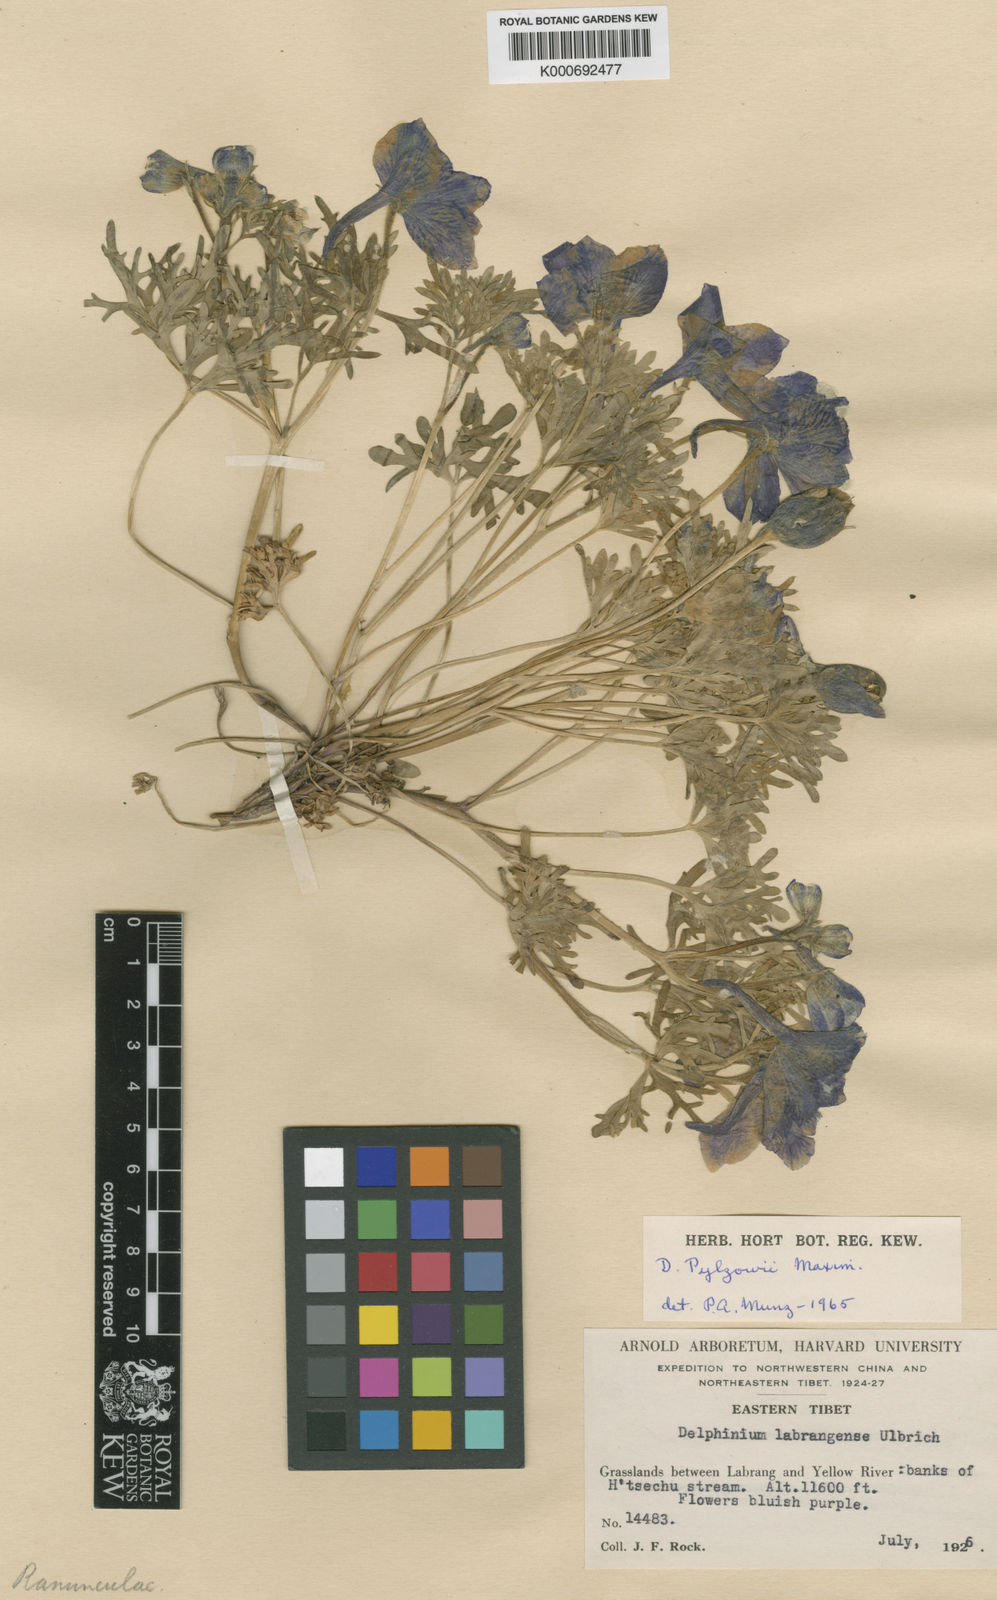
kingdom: Plantae
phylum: Tracheophyta
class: Magnoliopsida
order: Ranunculales
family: Ranunculaceae
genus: Delphinium
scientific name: Delphinium
